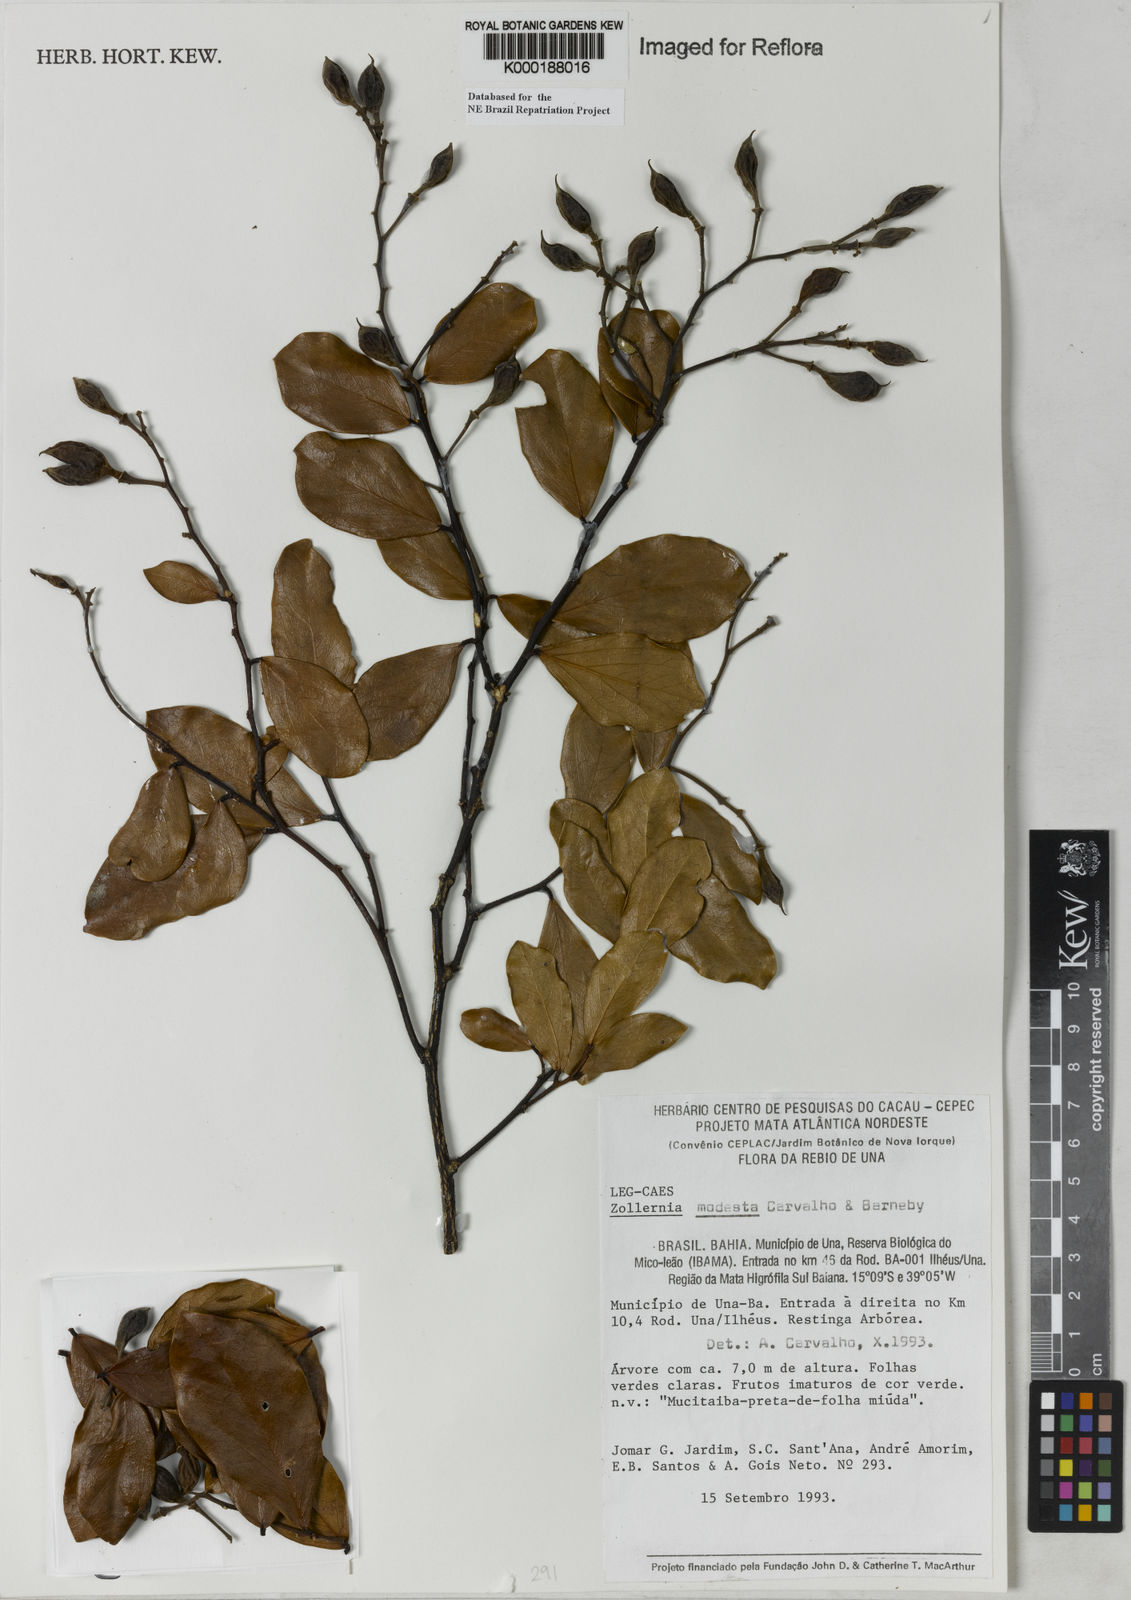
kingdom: Plantae
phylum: Tracheophyta
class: Magnoliopsida
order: Fabales
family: Fabaceae
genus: Zollernia
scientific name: Zollernia modesta
